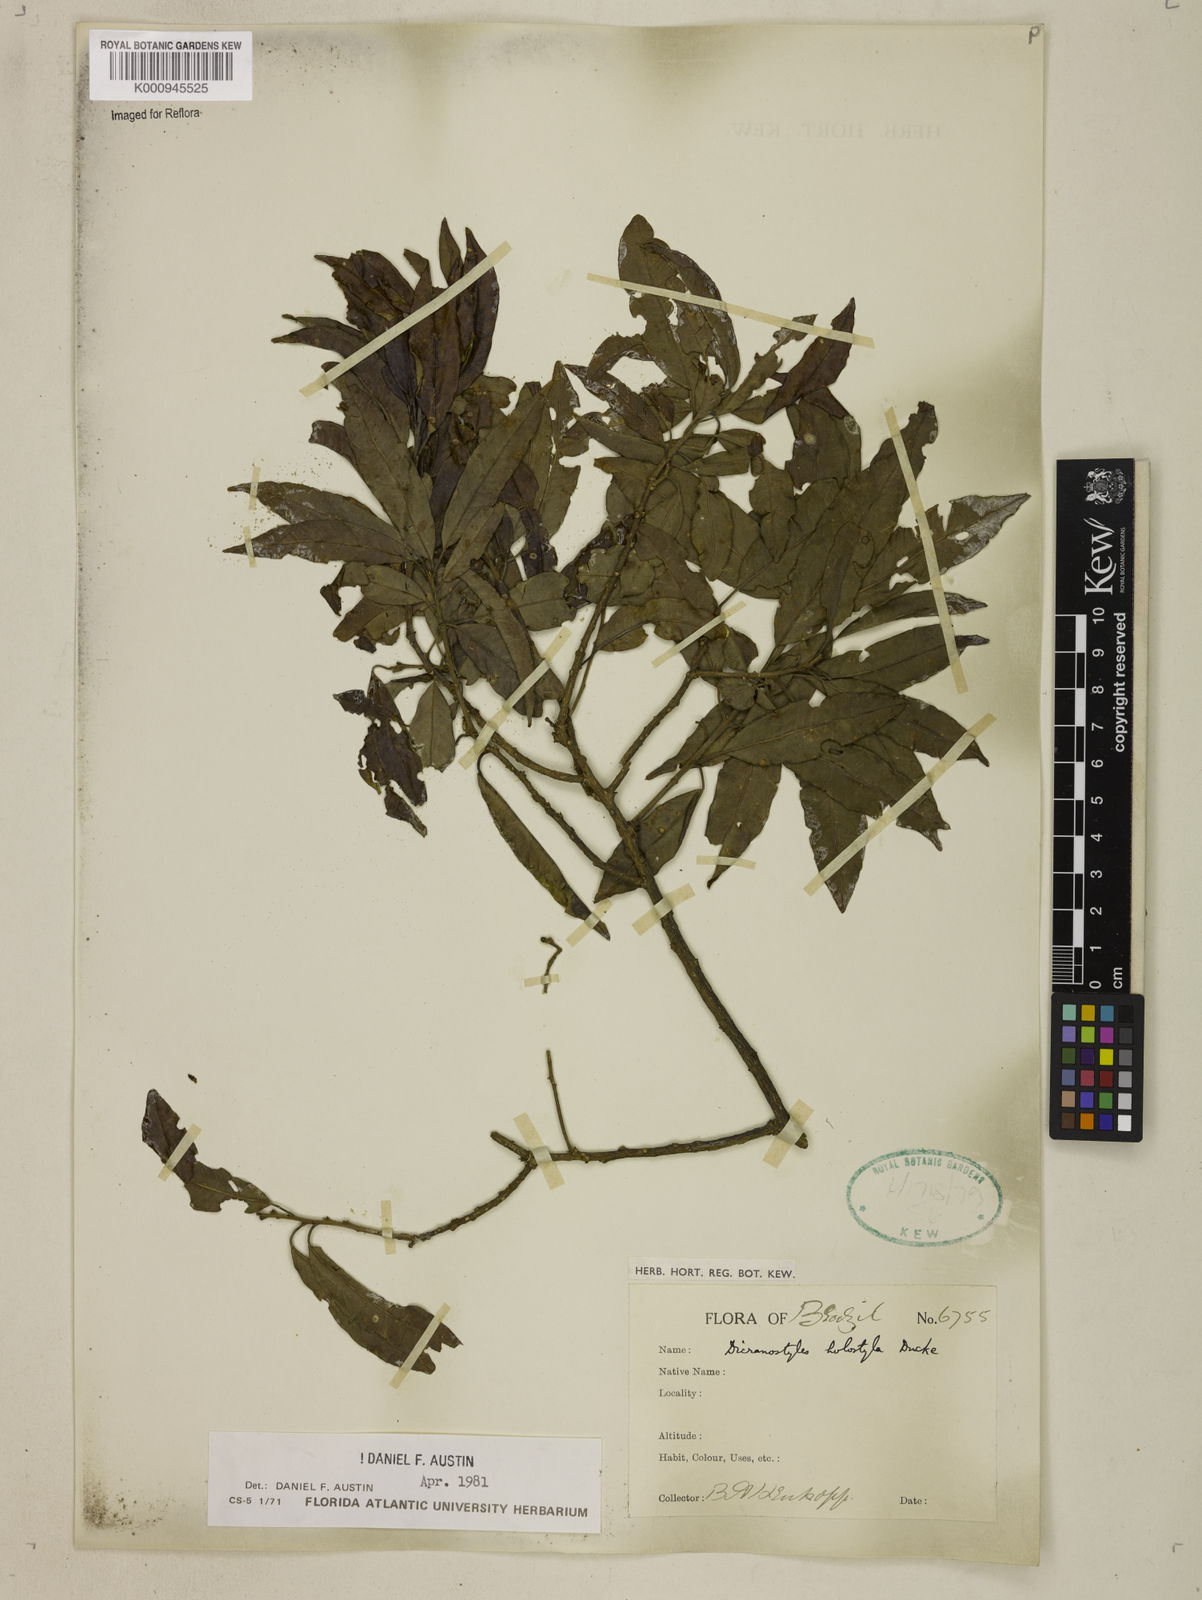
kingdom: Plantae
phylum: Tracheophyta
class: Magnoliopsida
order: Solanales
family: Convolvulaceae
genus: Dicranostyles
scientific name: Dicranostyles holostyla
